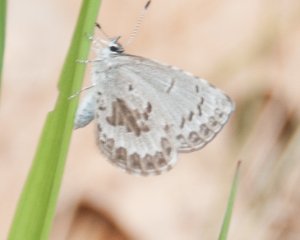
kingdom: Animalia
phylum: Arthropoda
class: Insecta
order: Lepidoptera
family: Lycaenidae
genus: Celastrina
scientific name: Celastrina lucia
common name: Northern Spring Azure
